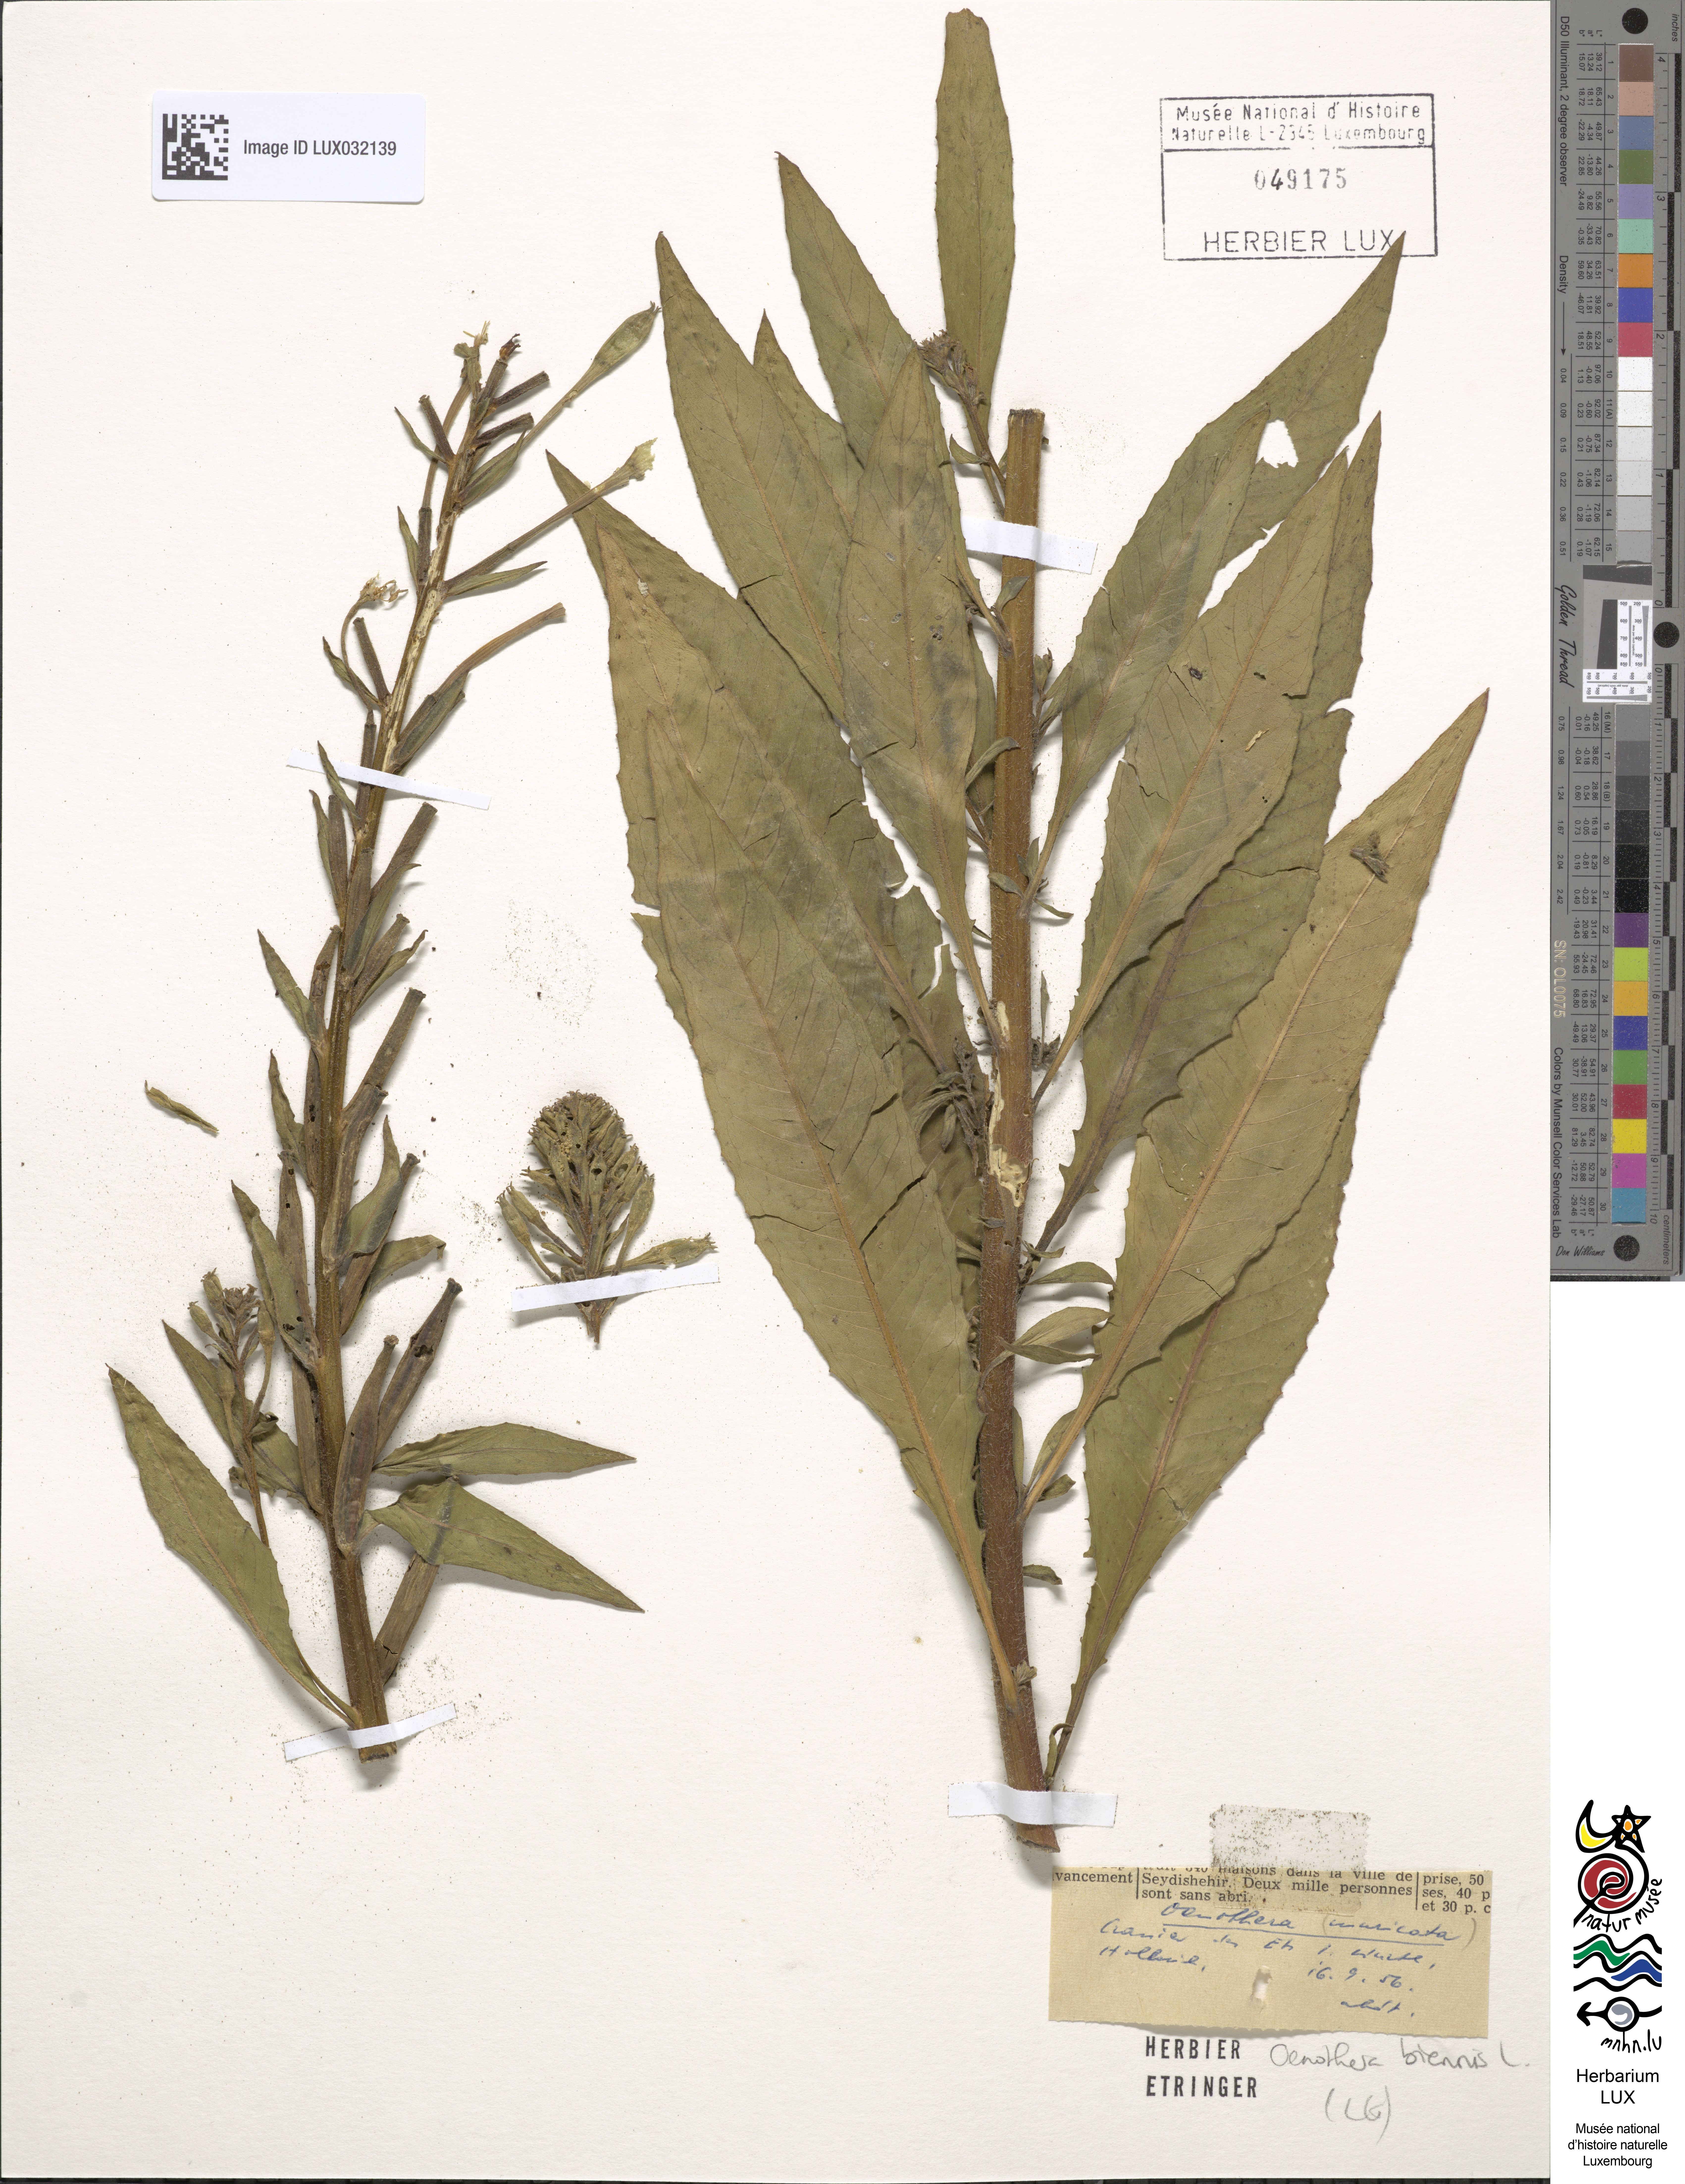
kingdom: Plantae
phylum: Tracheophyta
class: Magnoliopsida
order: Myrtales
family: Onagraceae
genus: Oenothera
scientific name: Oenothera biennis
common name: Common evening-primrose
